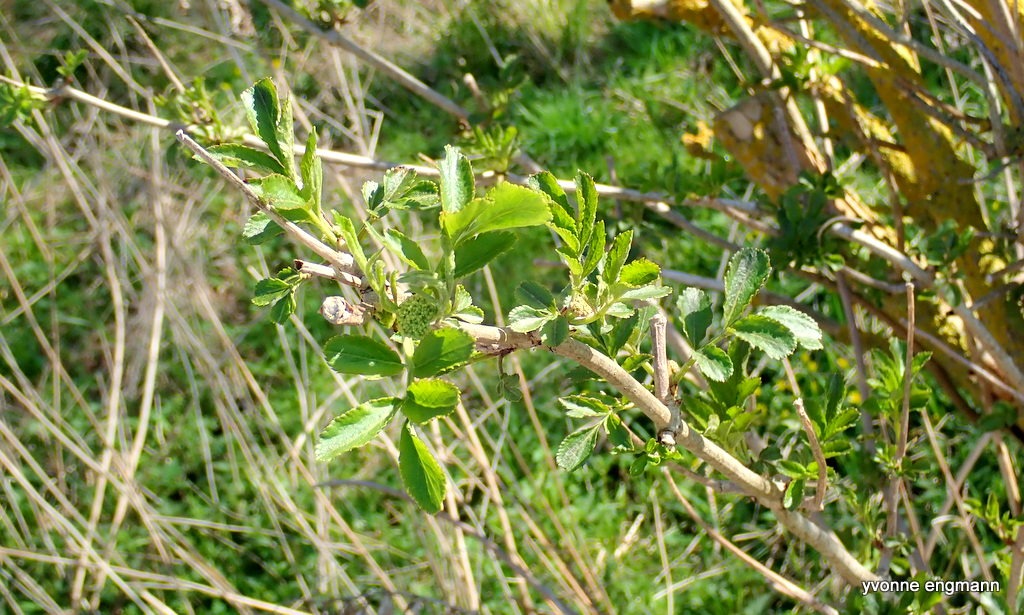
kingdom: Plantae
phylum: Tracheophyta
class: Magnoliopsida
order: Dipsacales
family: Viburnaceae
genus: Sambucus
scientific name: Sambucus nigra
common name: Almindelig hyld
